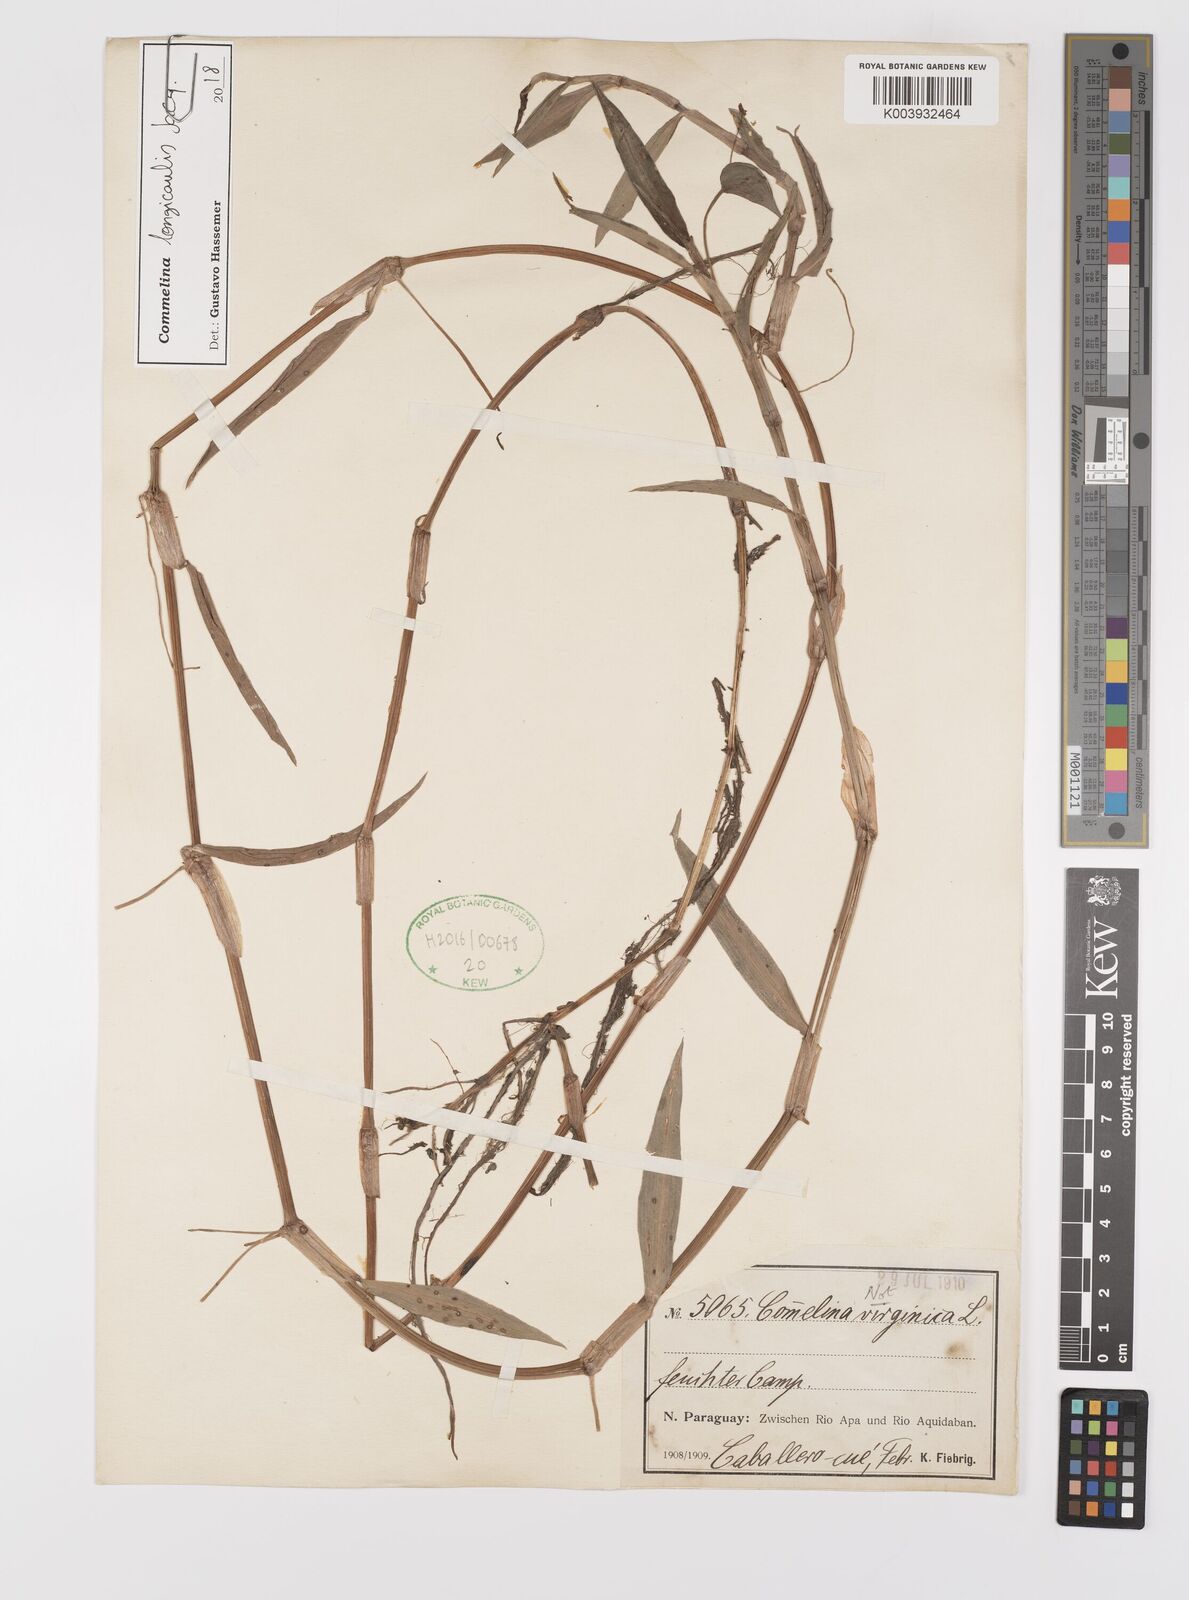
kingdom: Plantae
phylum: Tracheophyta
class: Liliopsida
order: Commelinales
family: Commelinaceae
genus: Commelina
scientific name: Commelina diffusa
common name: Climbing dayflower
